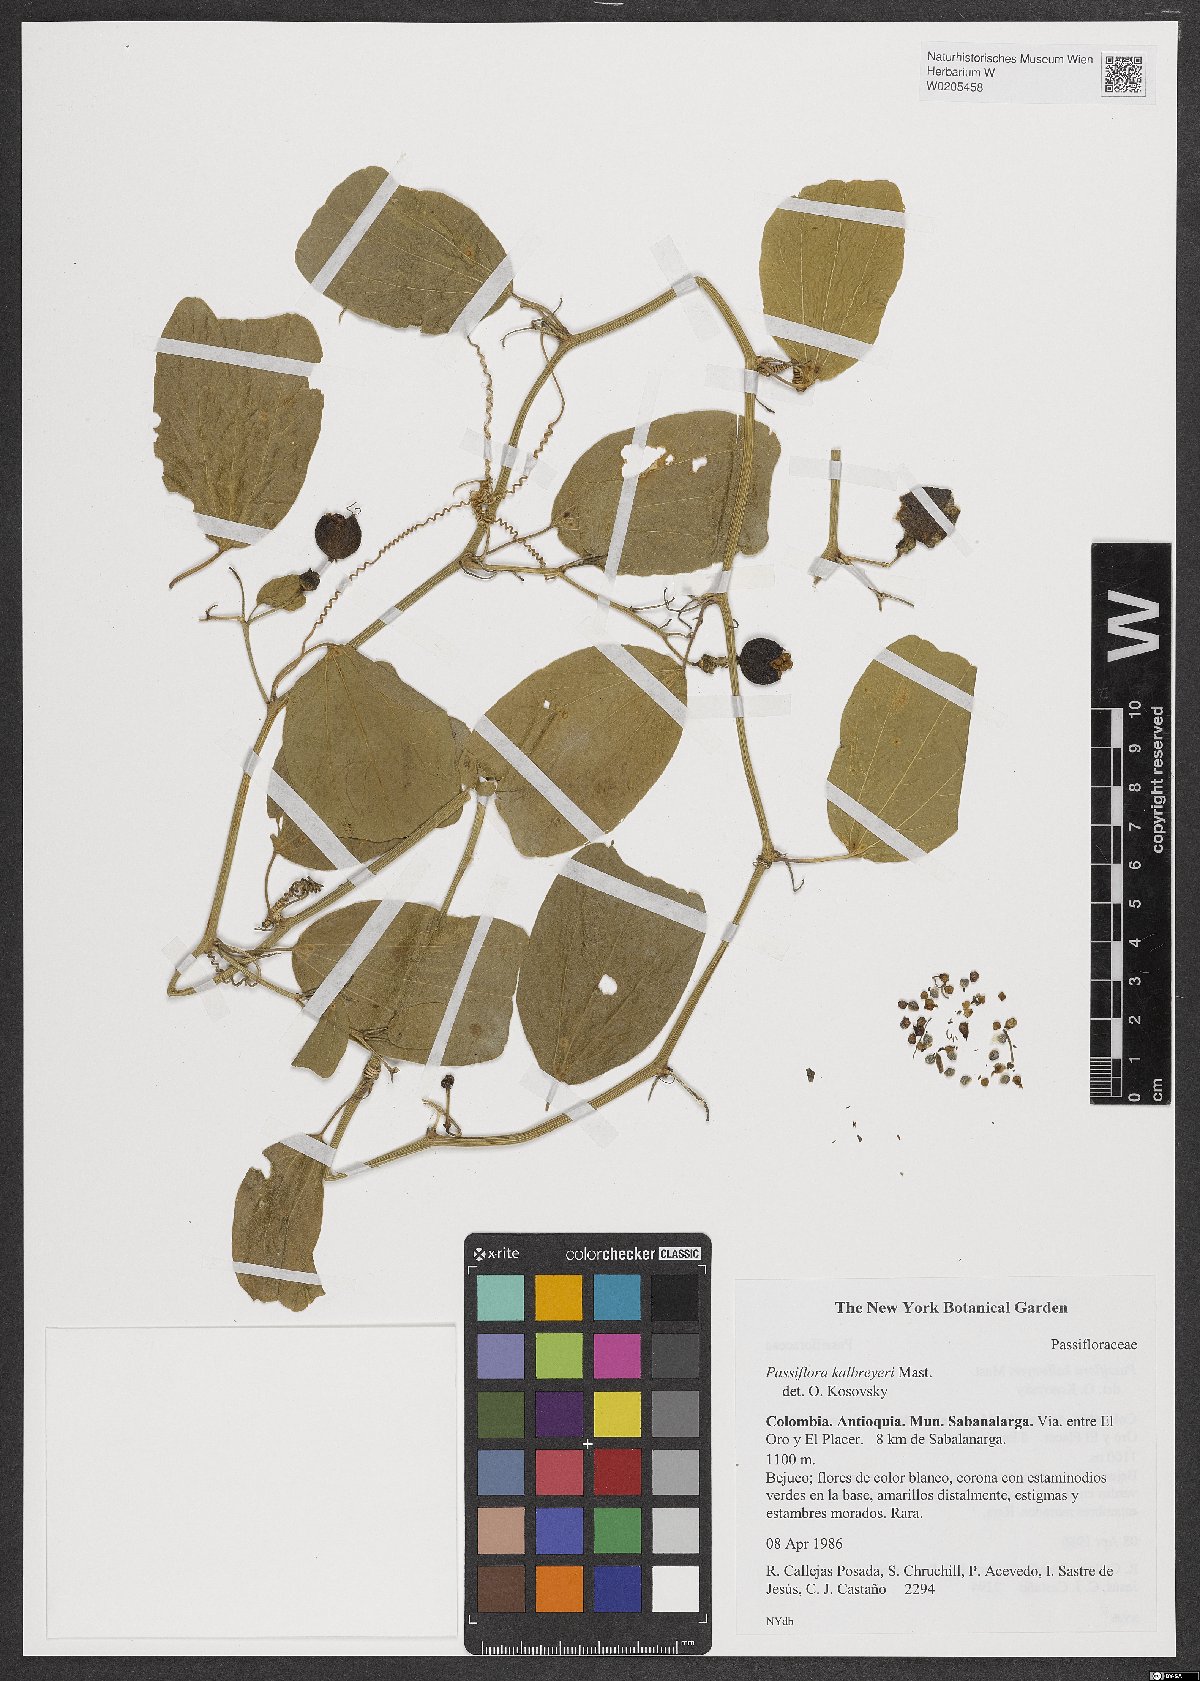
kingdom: Plantae
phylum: Tracheophyta
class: Magnoliopsida
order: Malpighiales
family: Passifloraceae
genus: Passiflora
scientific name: Passiflora kalbreyeri
